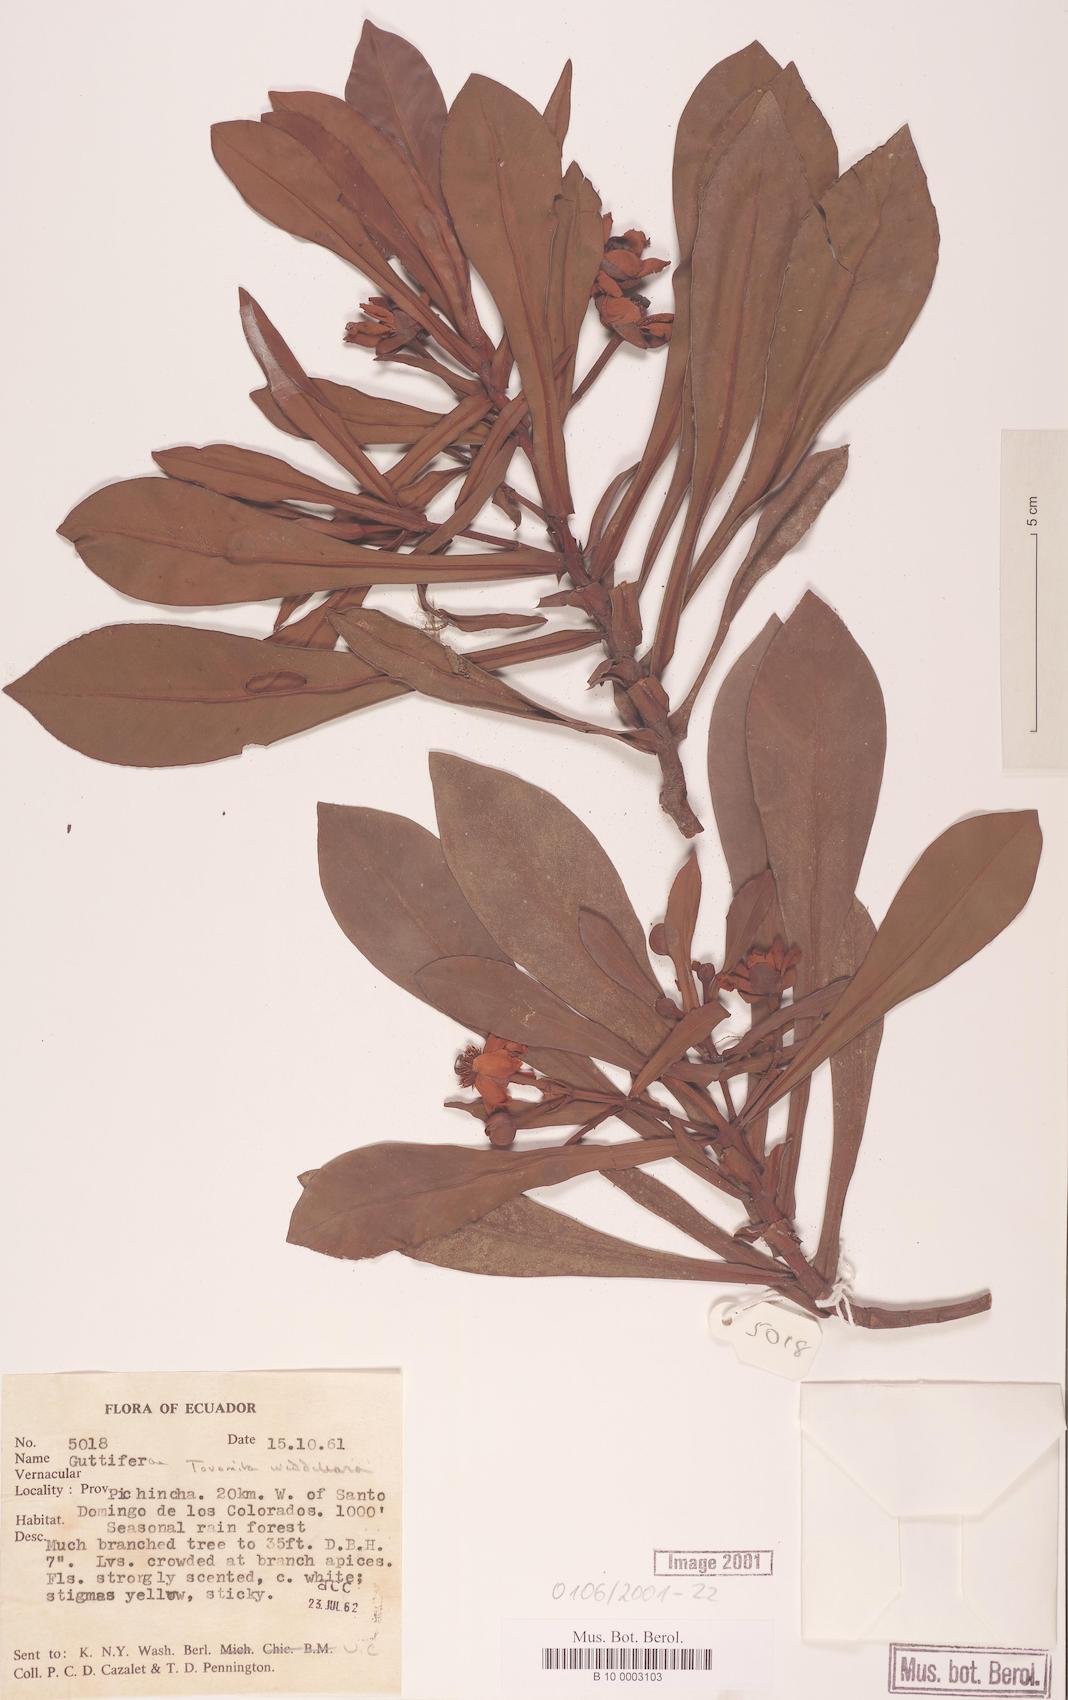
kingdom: Plantae
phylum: Tracheophyta
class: Magnoliopsida
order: Malpighiales
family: Clusiaceae
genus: Arawakia
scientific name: Arawakia weddelliana
